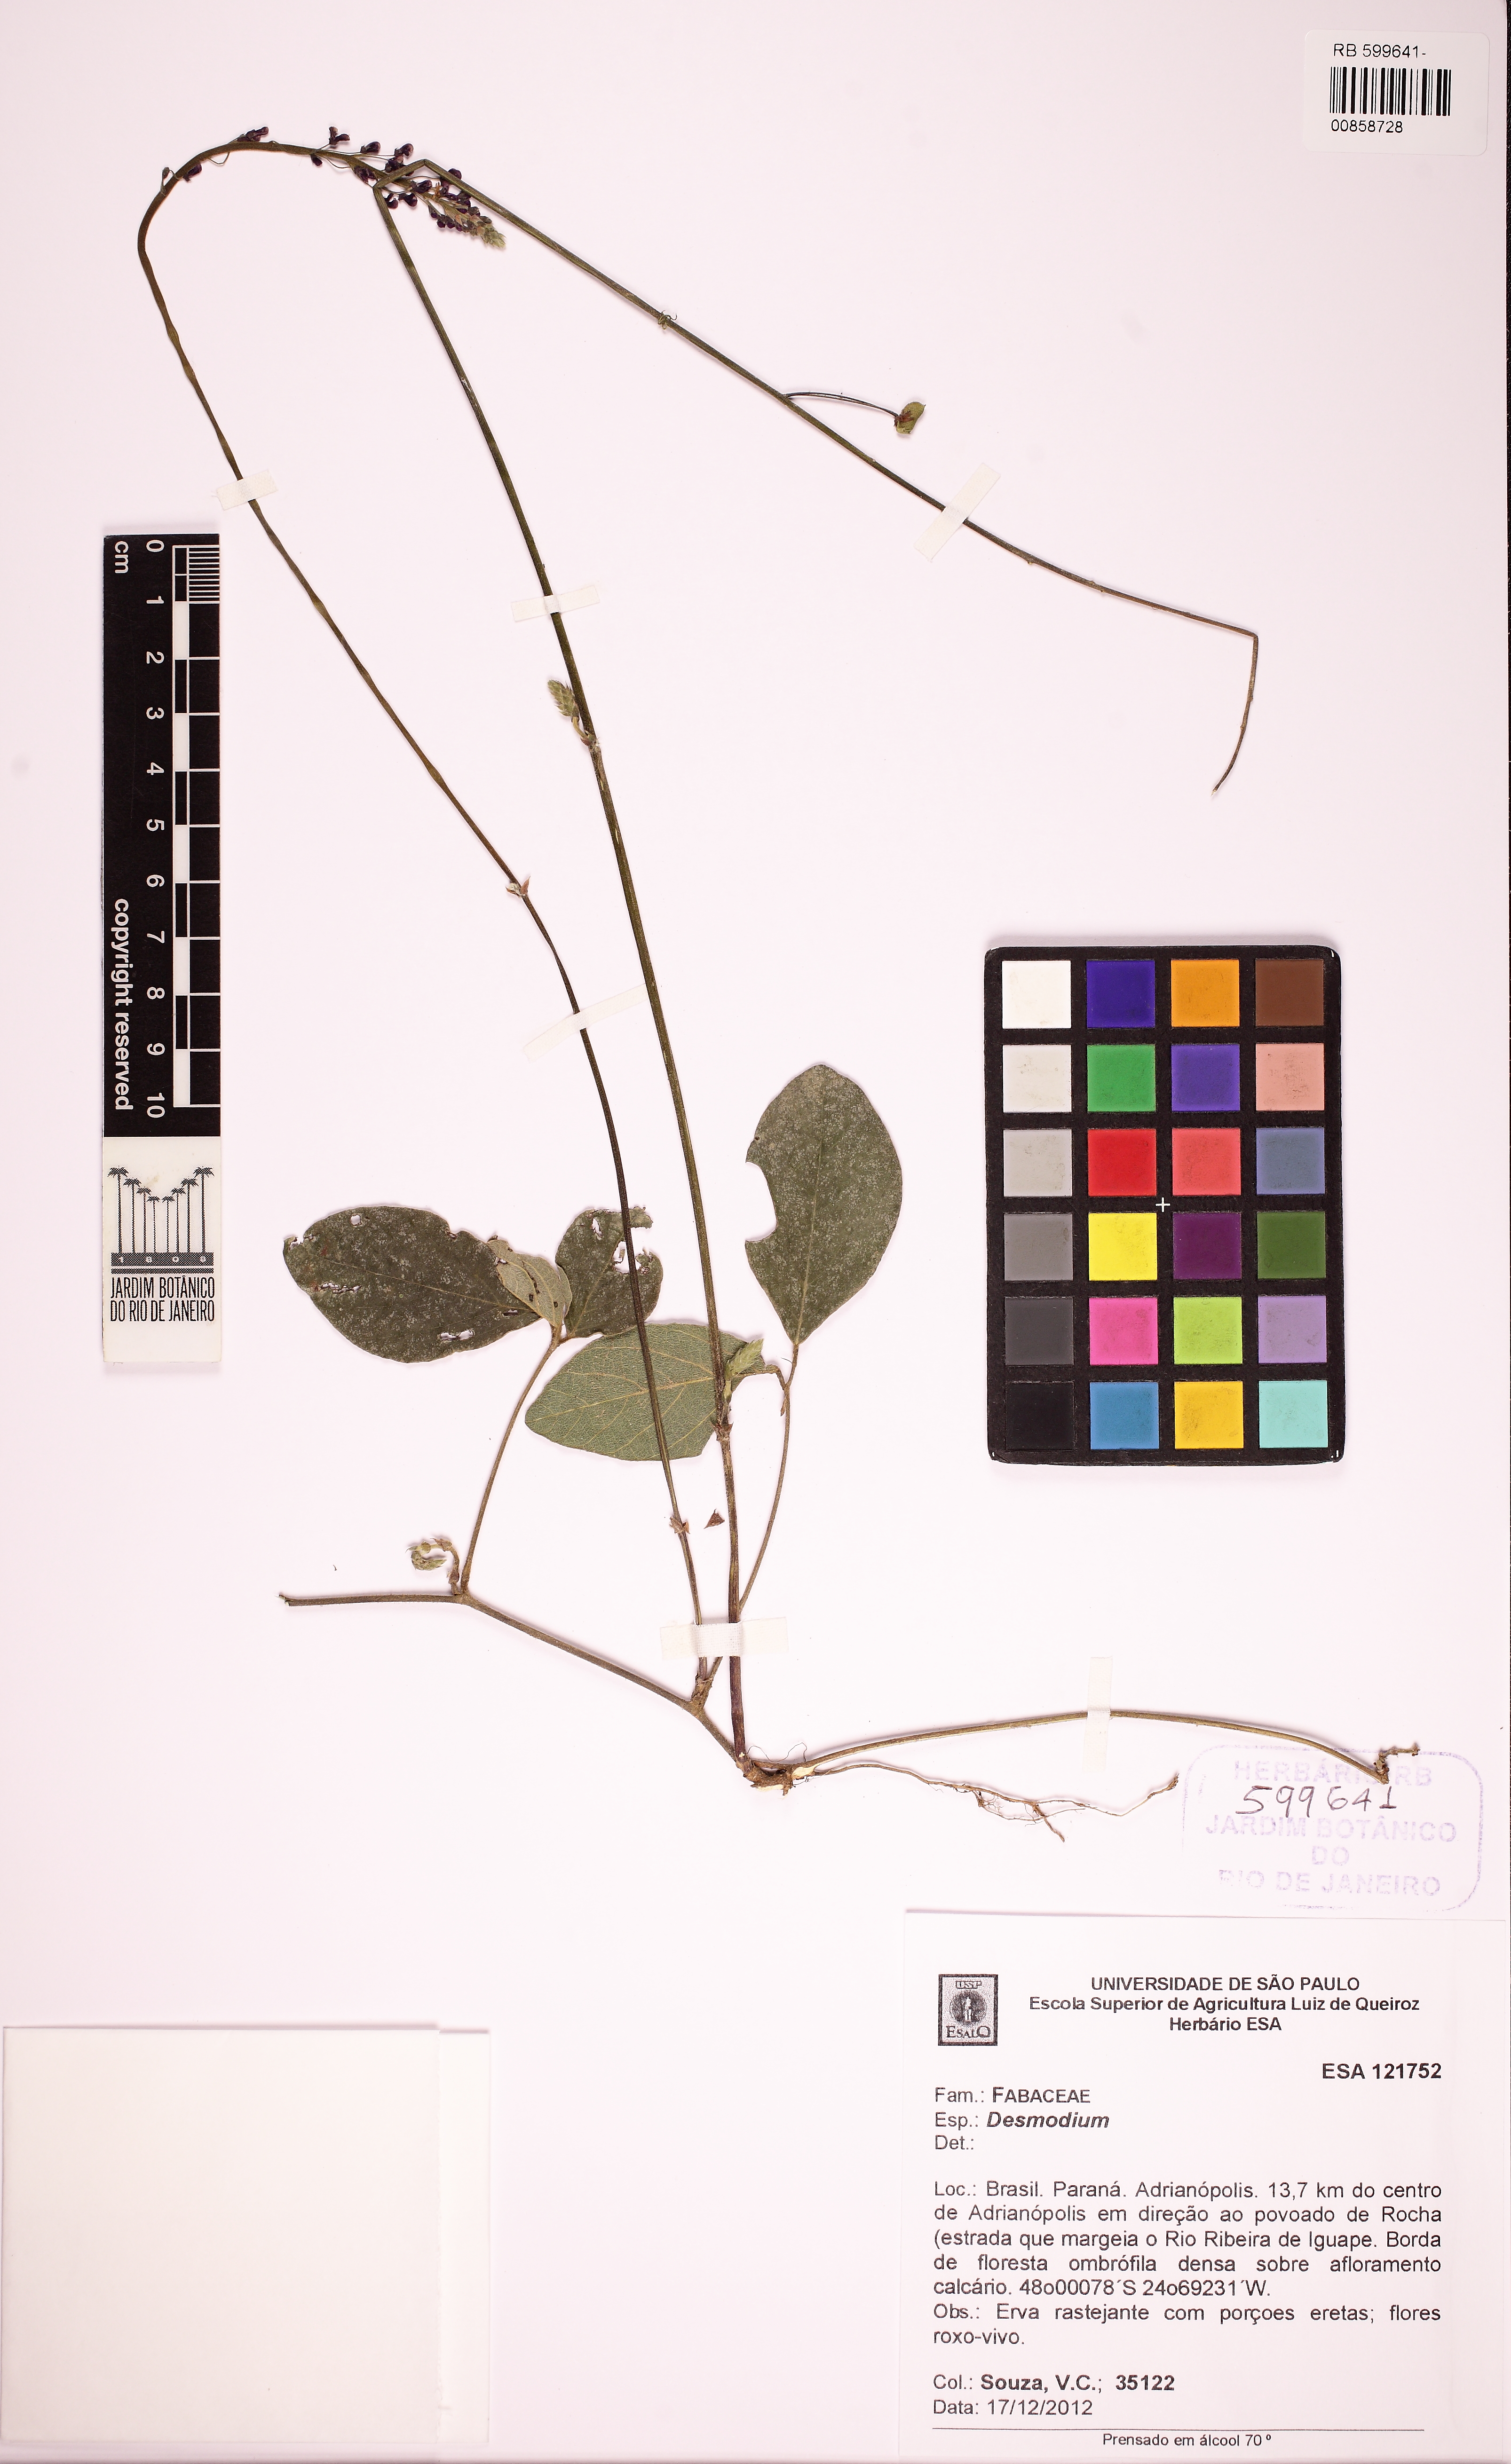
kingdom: Plantae
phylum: Tracheophyta
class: Magnoliopsida
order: Fabales
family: Fabaceae
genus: Desmodium
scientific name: Desmodium axillare
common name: Wire with
